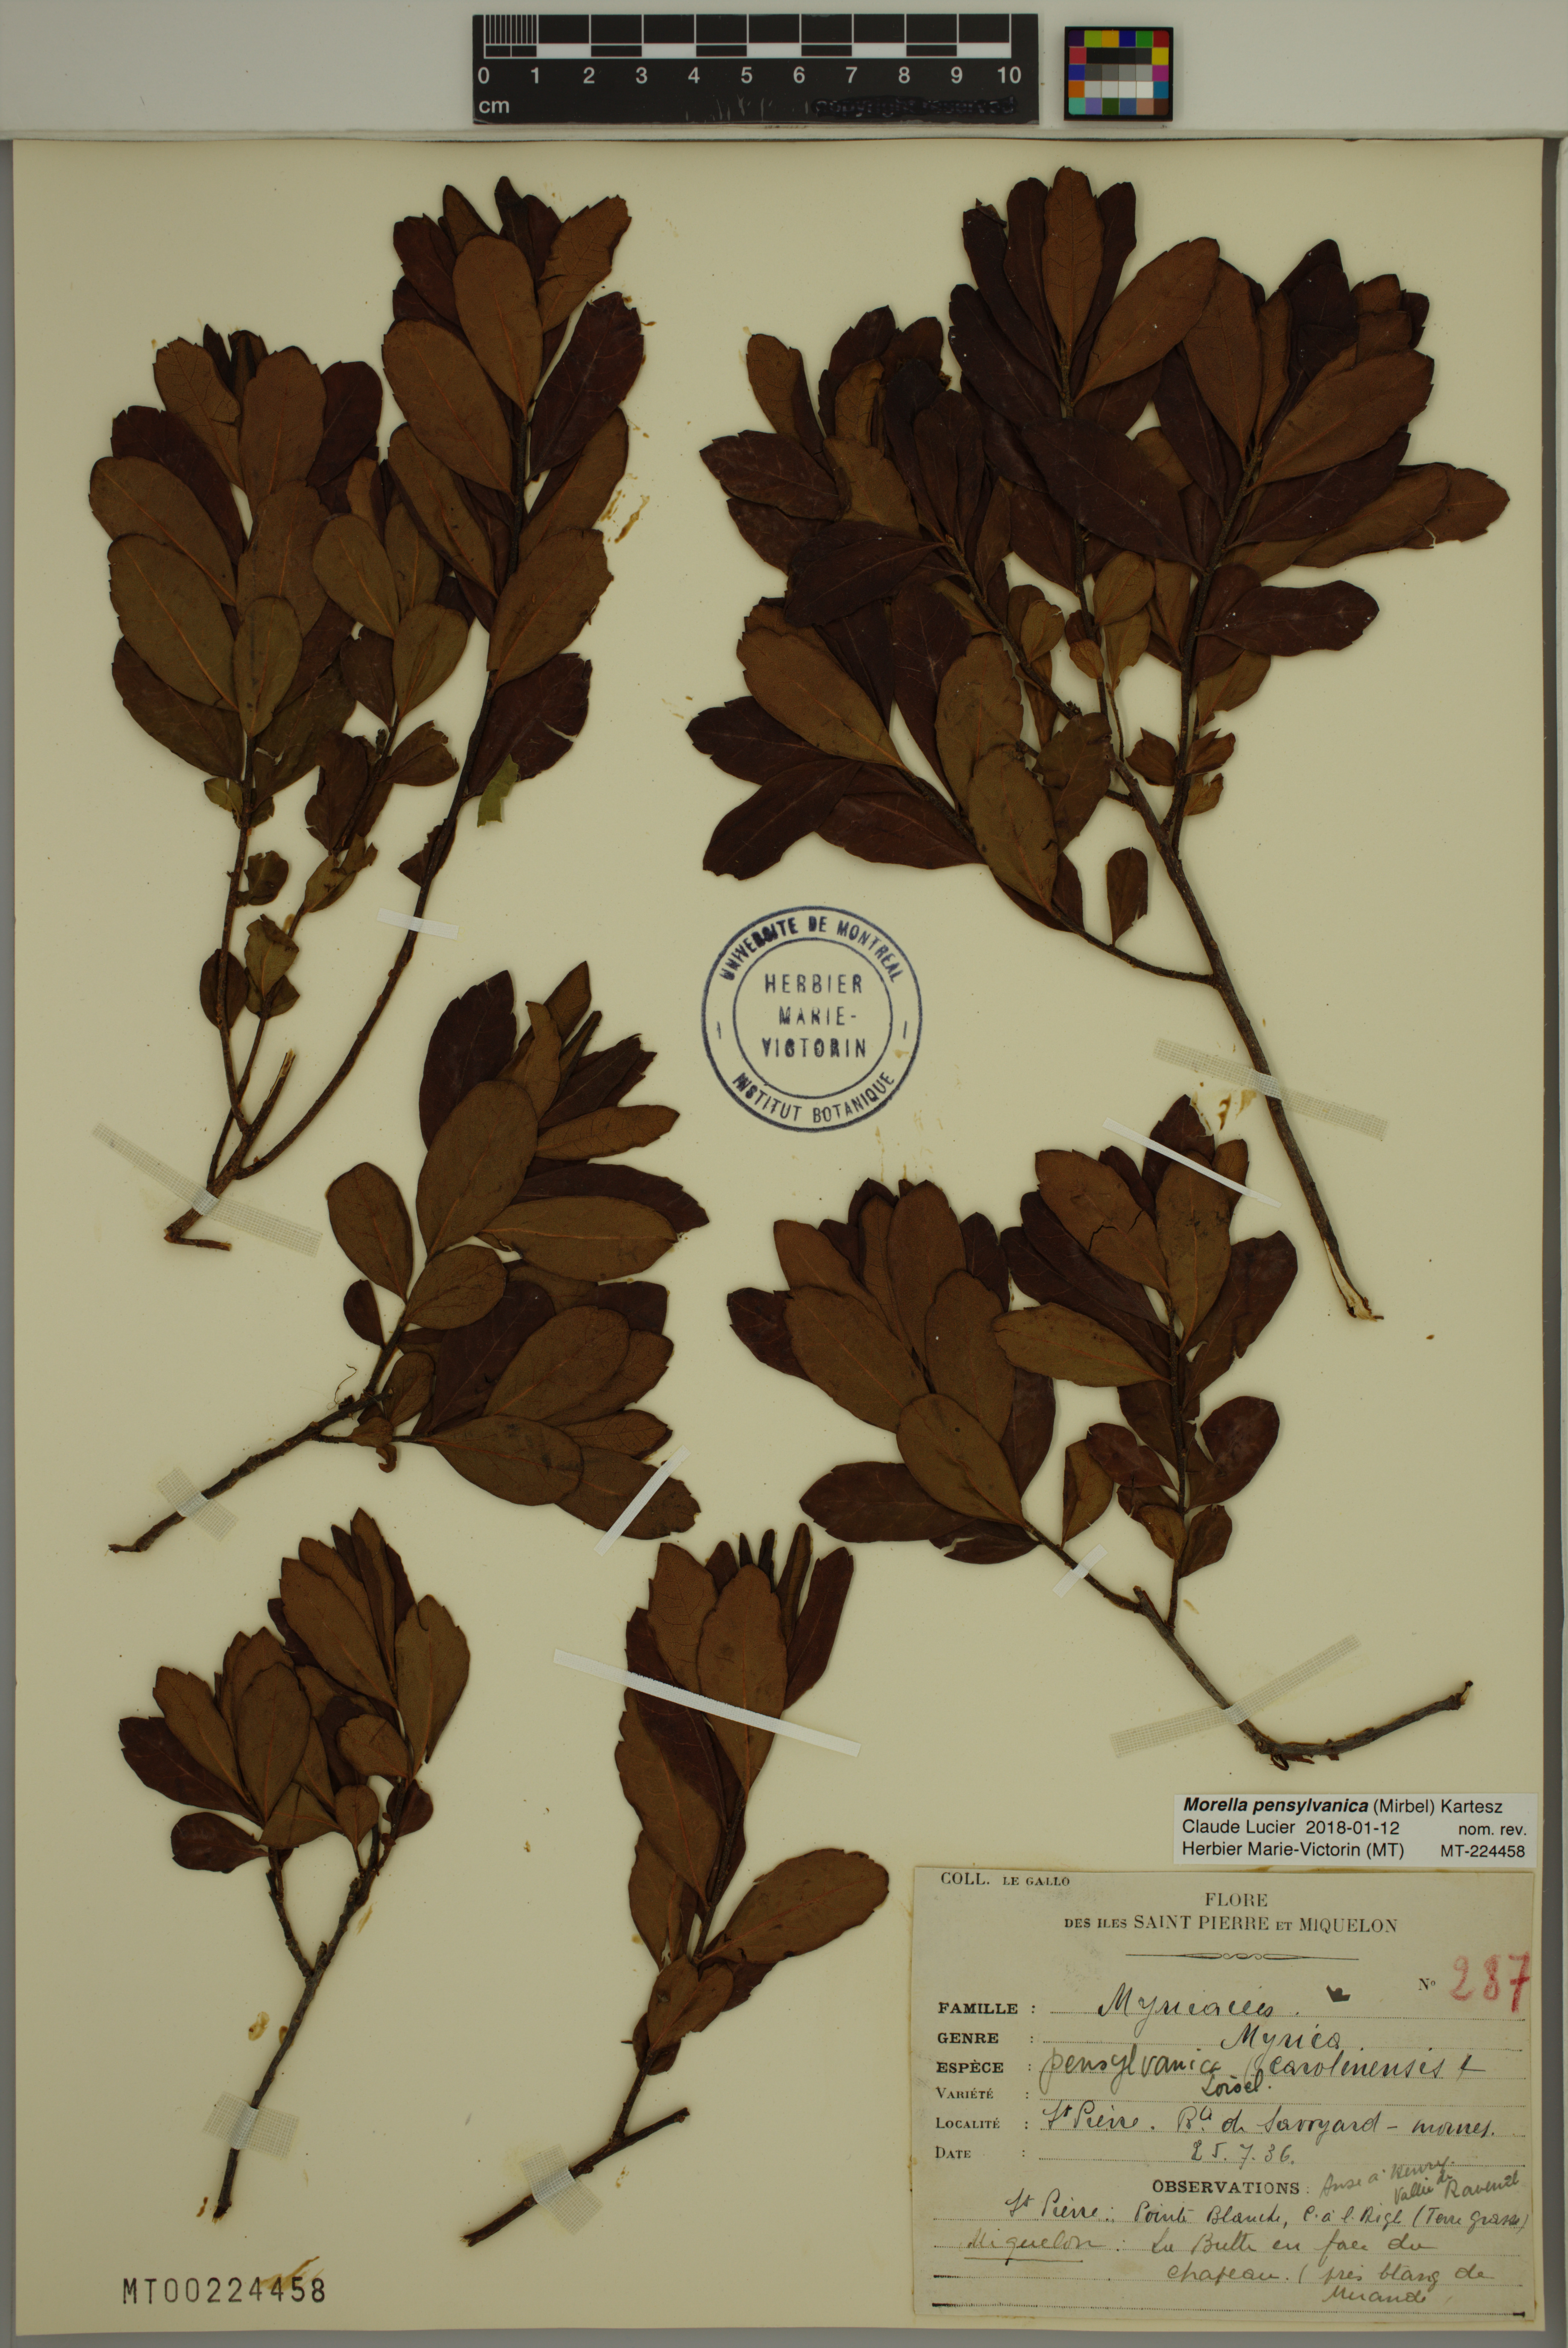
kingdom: Plantae
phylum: Tracheophyta
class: Magnoliopsida
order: Fagales
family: Myricaceae
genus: Morella
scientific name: Morella pensylvanica
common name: Northern bayberry
